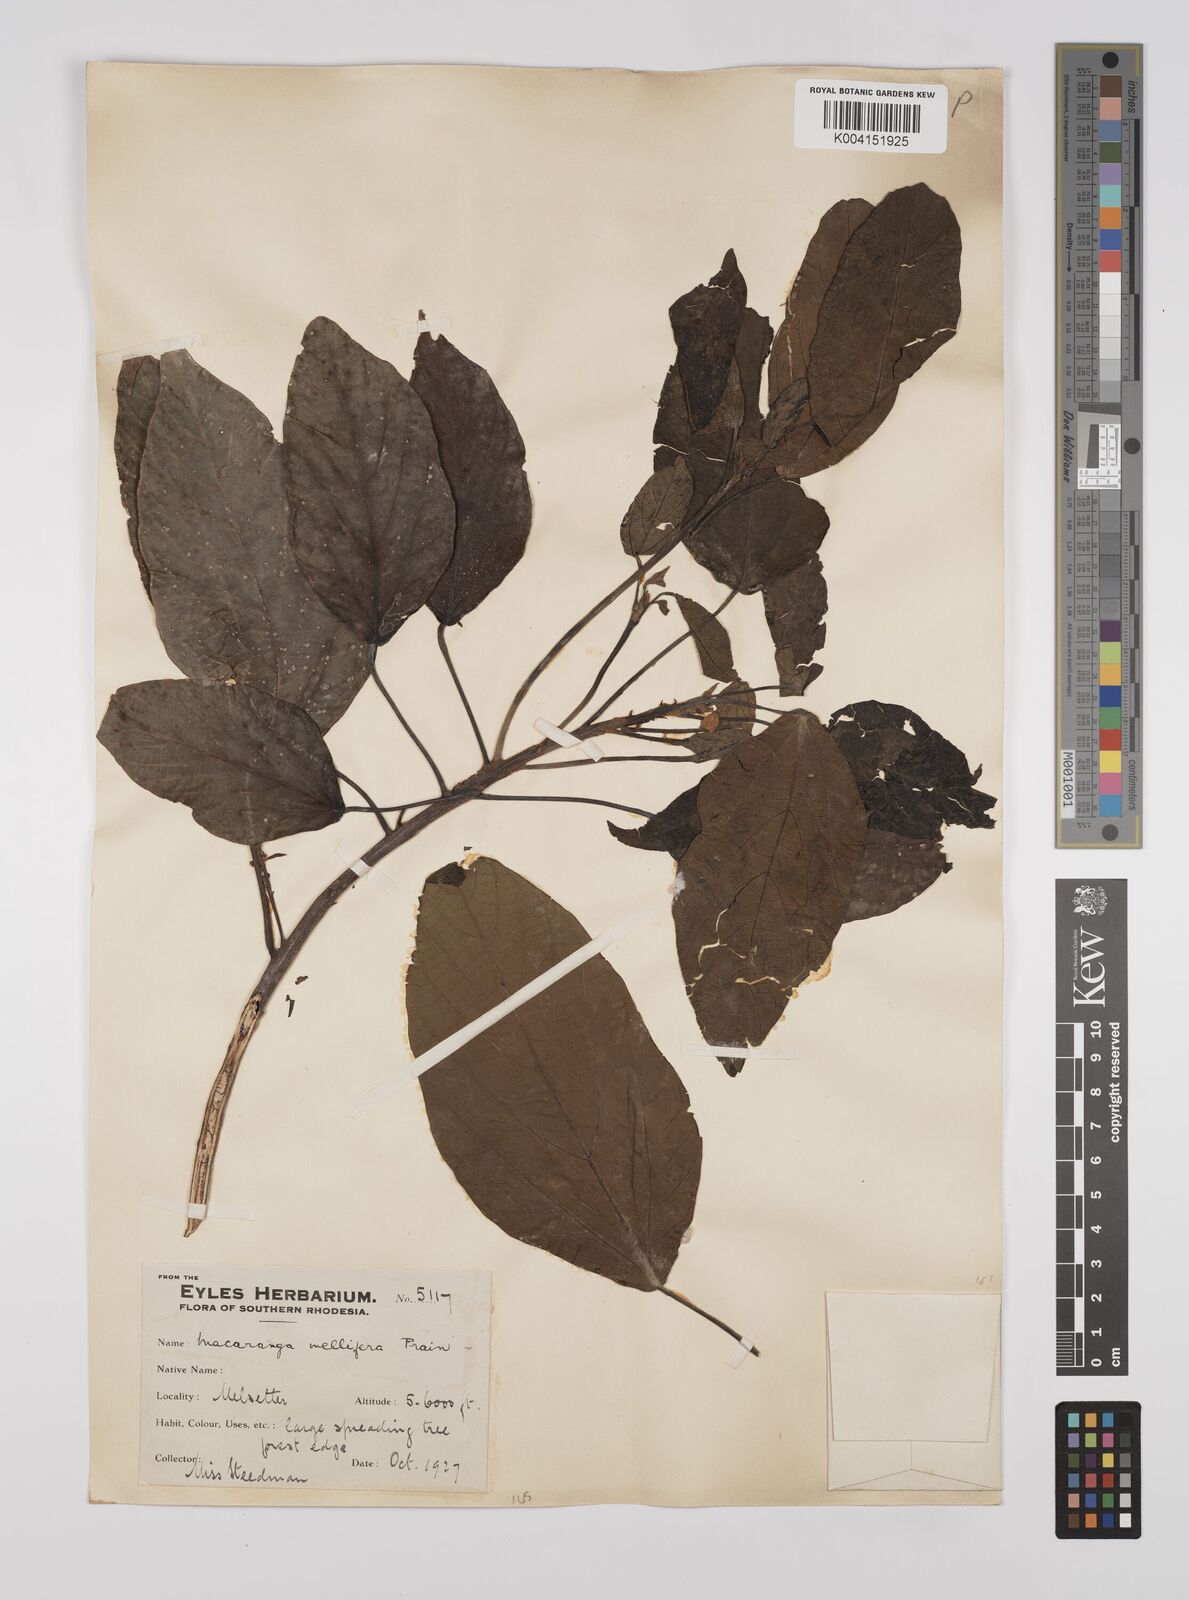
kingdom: Plantae
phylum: Tracheophyta
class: Magnoliopsida
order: Malpighiales
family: Euphorbiaceae
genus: Macaranga
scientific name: Macaranga mellifera
